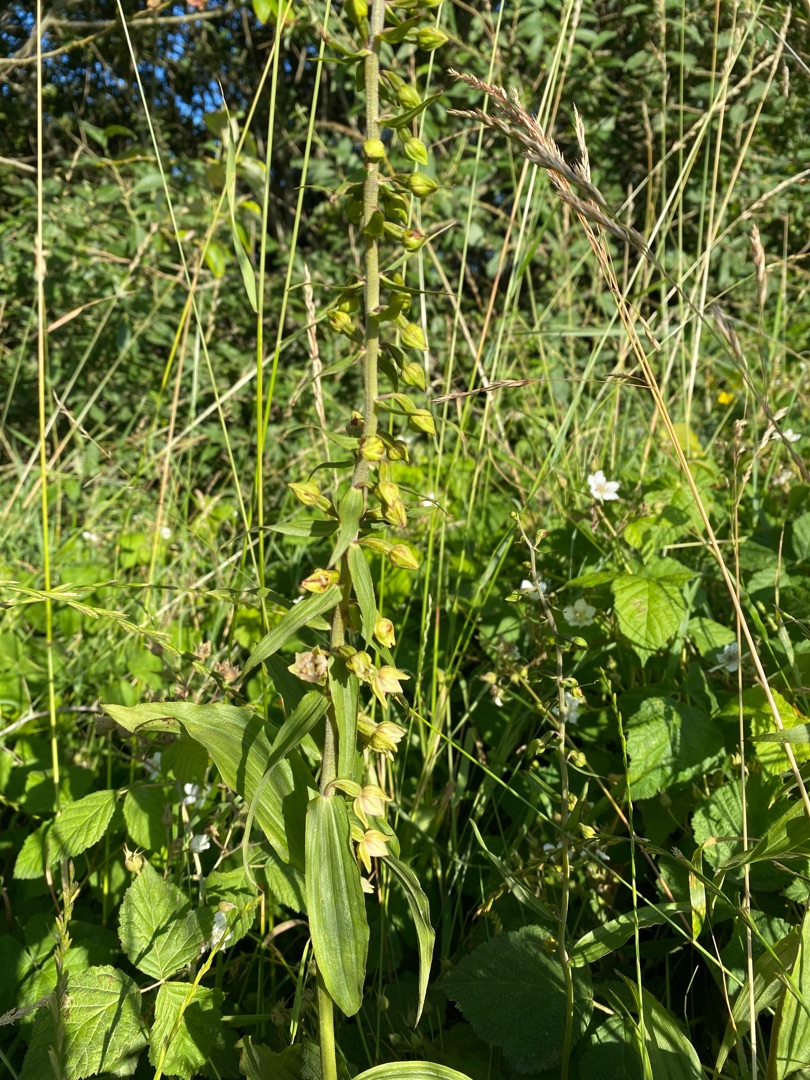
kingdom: Plantae
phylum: Tracheophyta
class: Liliopsida
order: Asparagales
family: Orchidaceae
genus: Epipactis
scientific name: Epipactis helleborine
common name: Skov-hullæbe
